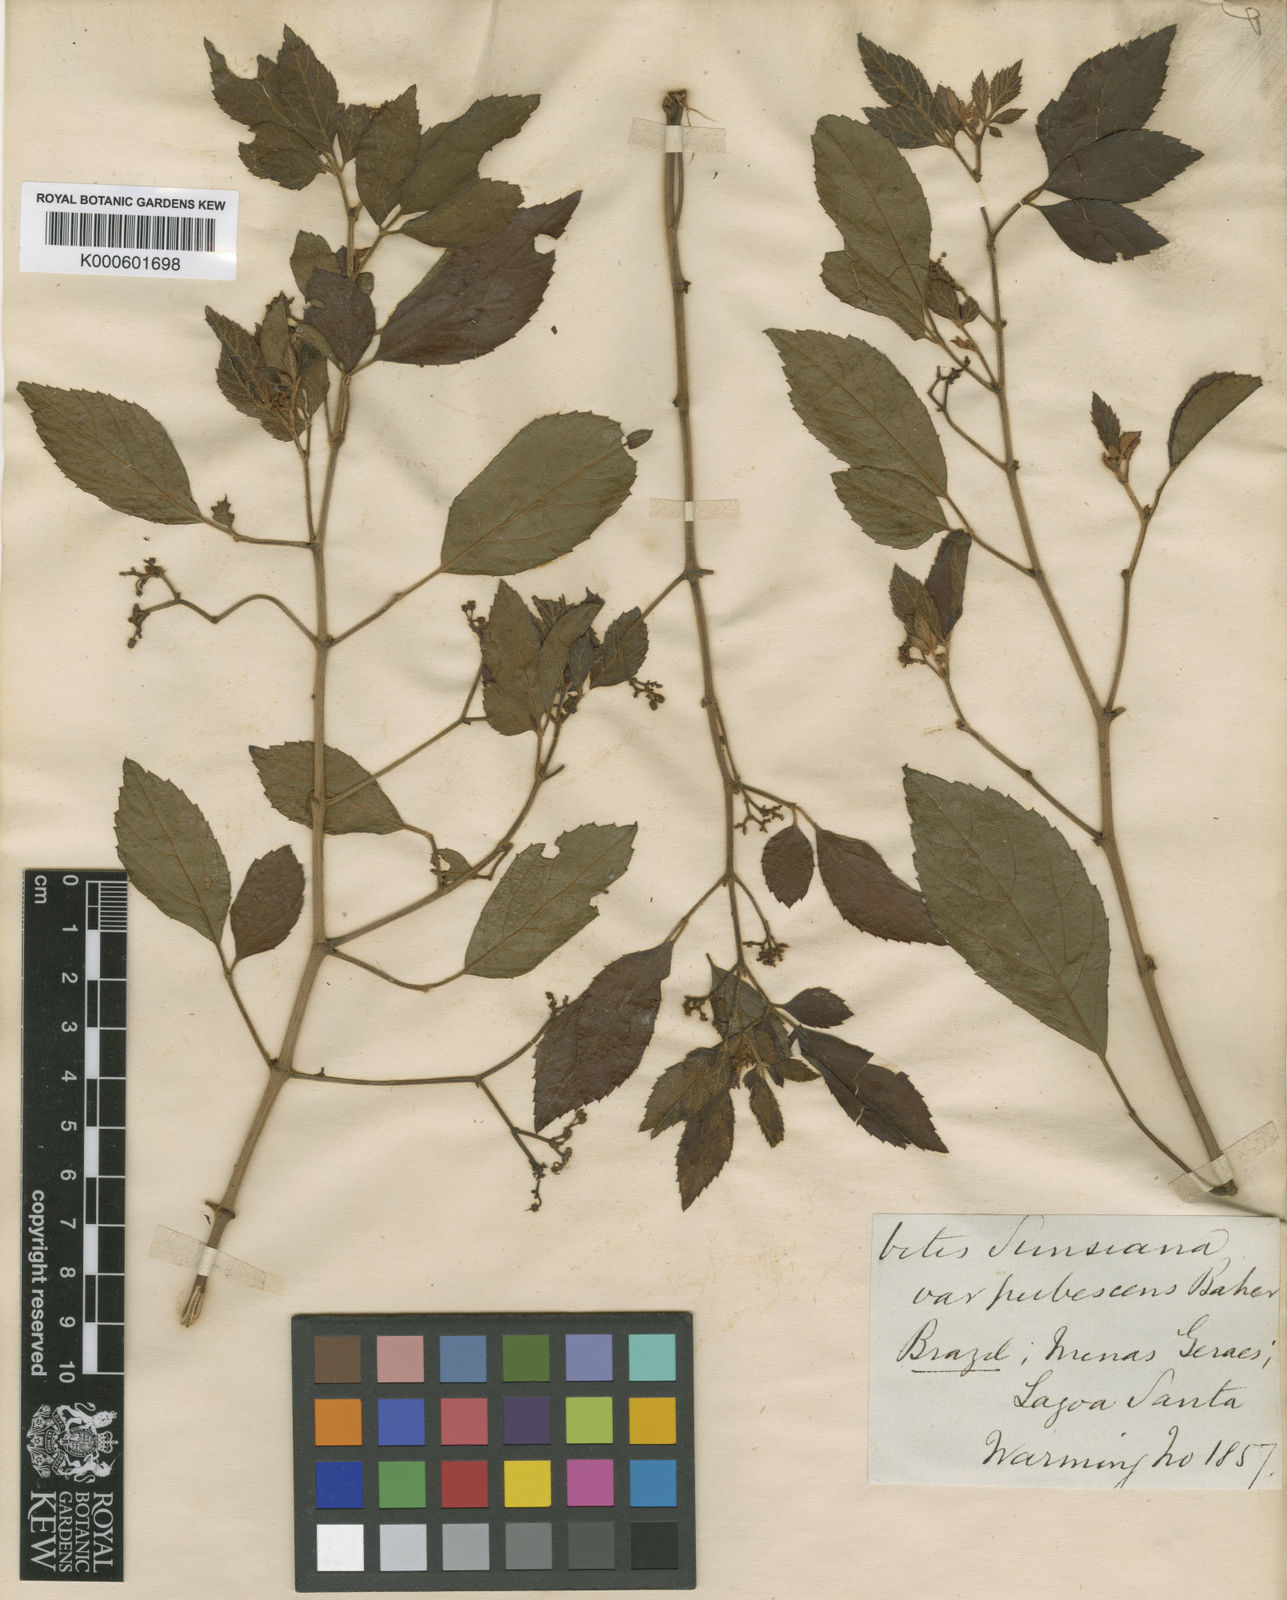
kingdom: Plantae
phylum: Tracheophyta
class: Magnoliopsida
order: Vitales
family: Vitaceae
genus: Clematicissus
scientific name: Clematicissus simsiana
